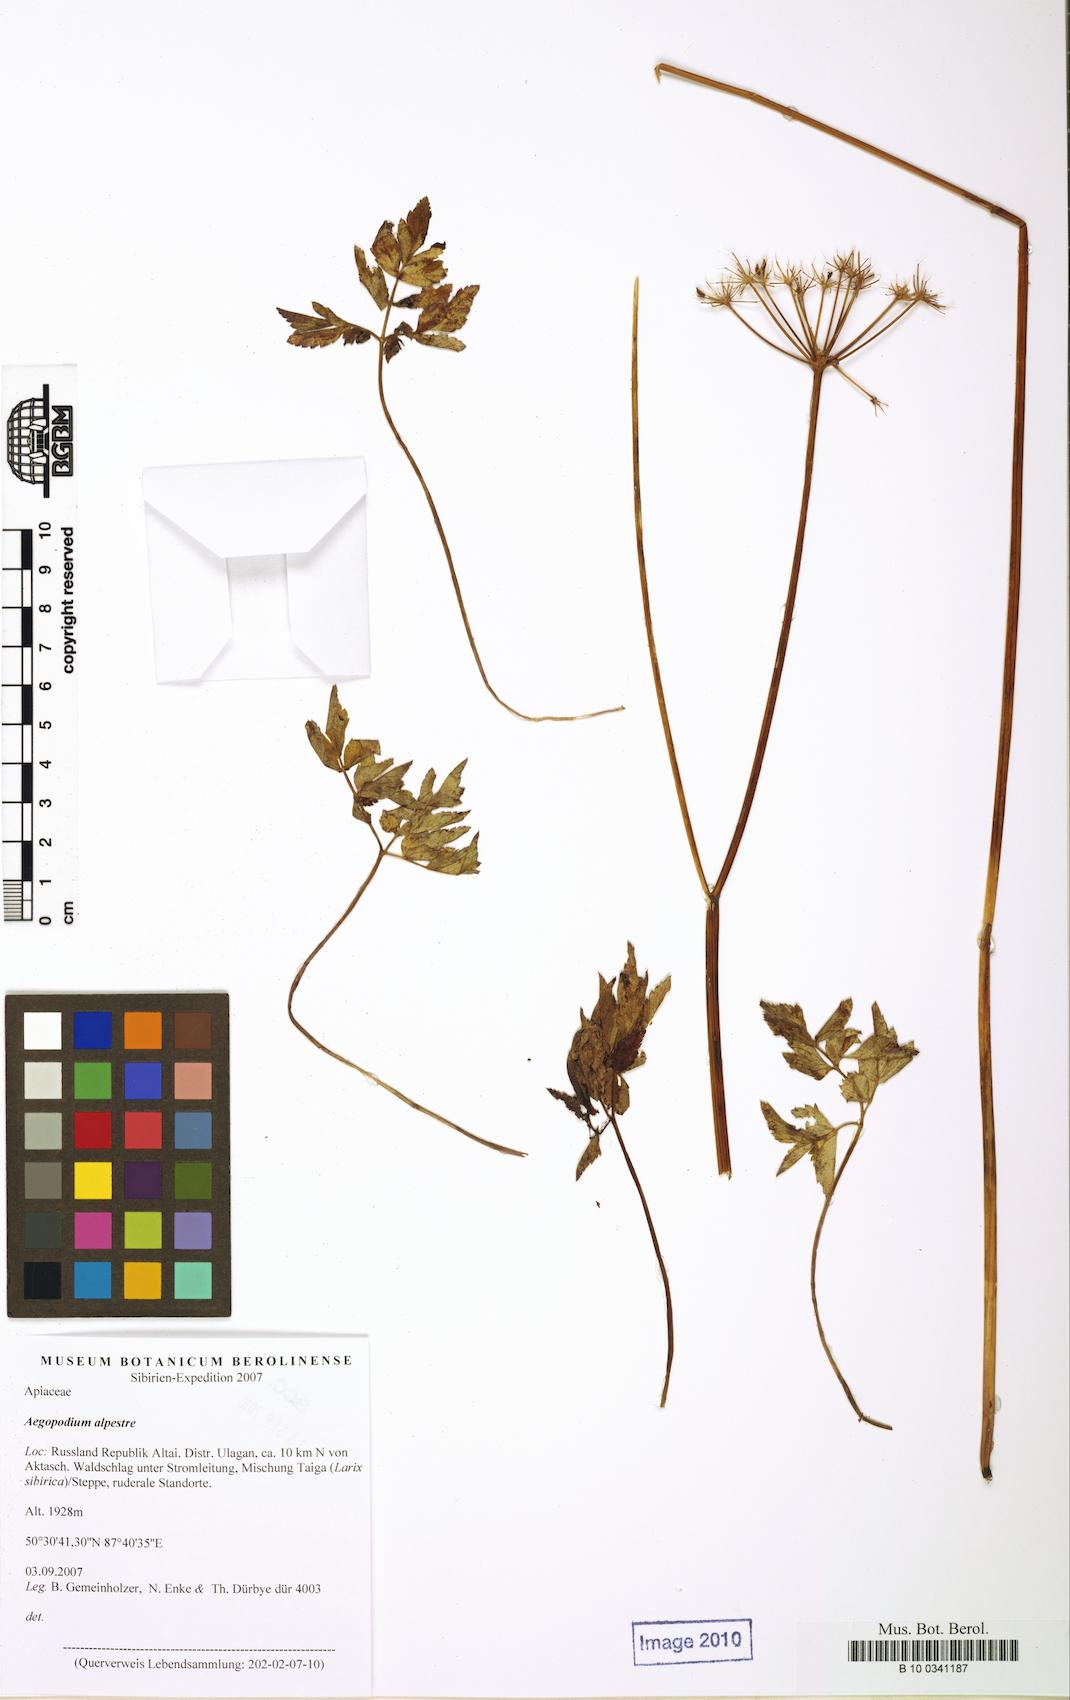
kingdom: Plantae
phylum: Tracheophyta
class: Magnoliopsida
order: Apiales
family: Apiaceae
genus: Aegopodium
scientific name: Aegopodium alpestre
